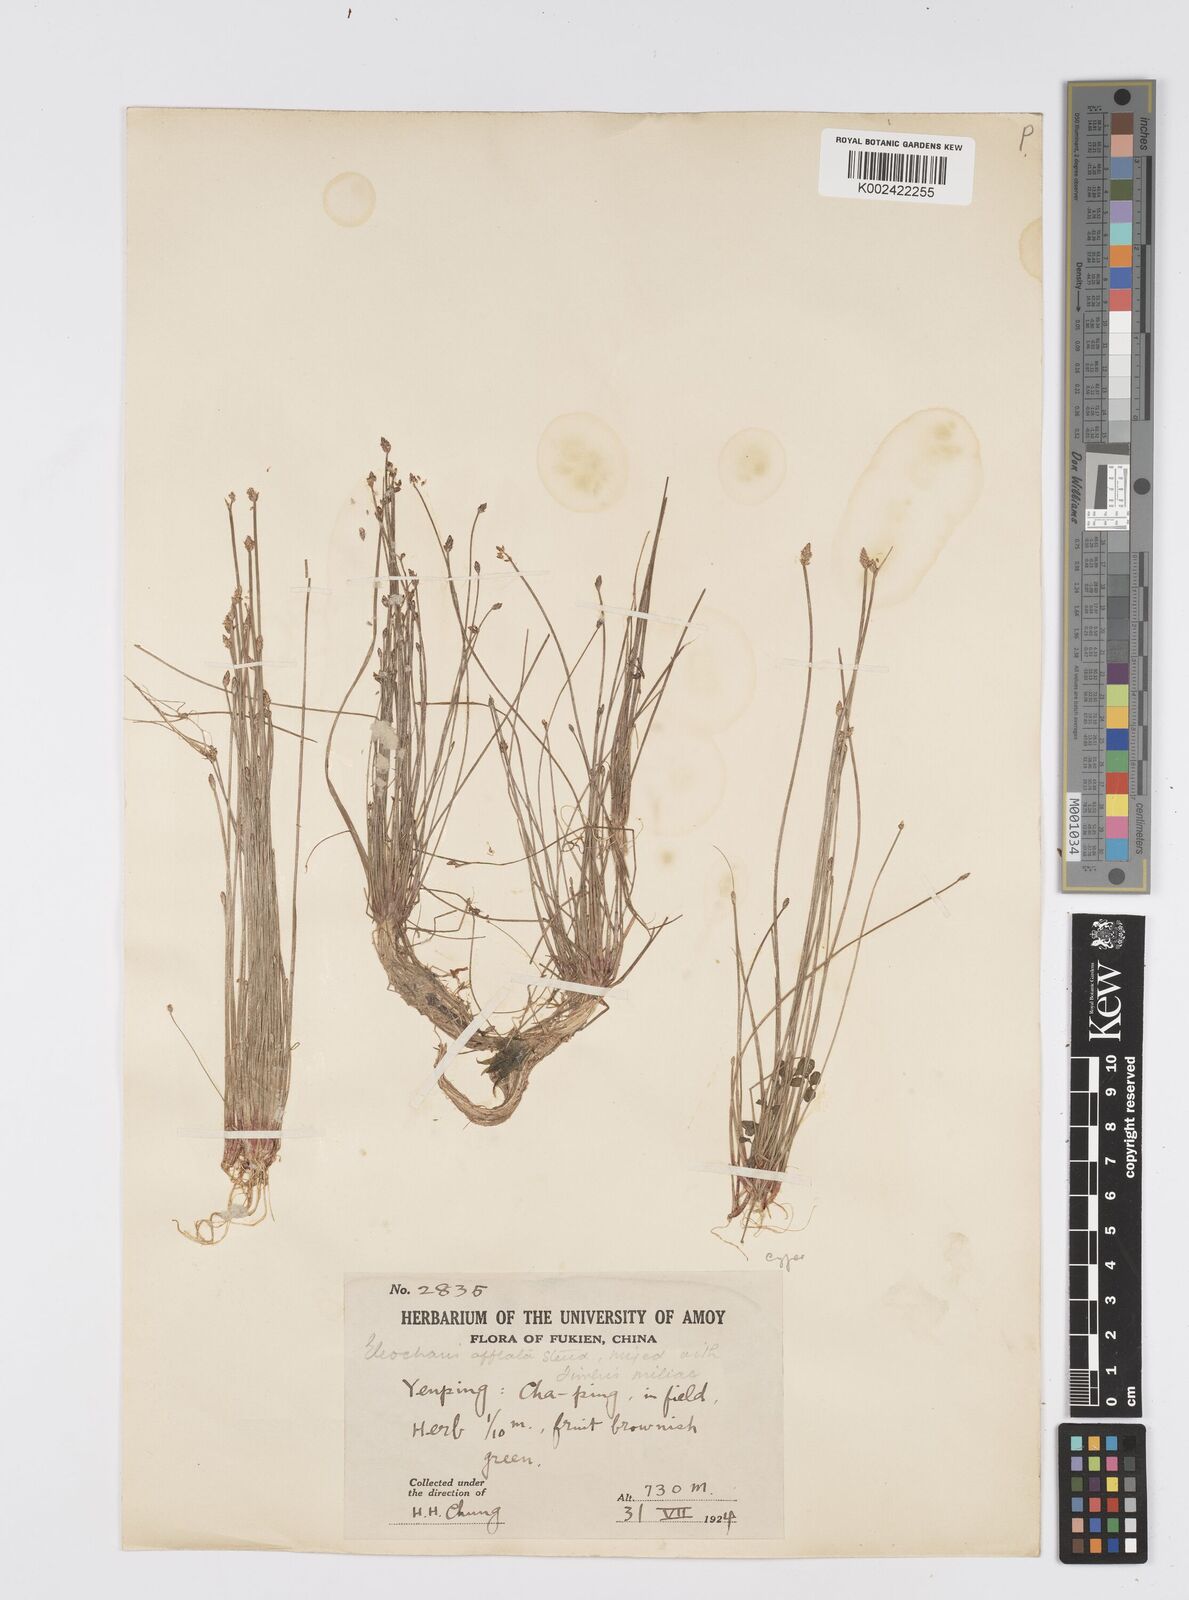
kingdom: Plantae
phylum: Tracheophyta
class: Liliopsida
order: Poales
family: Cyperaceae
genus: Eleocharis
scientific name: Eleocharis pellucida
